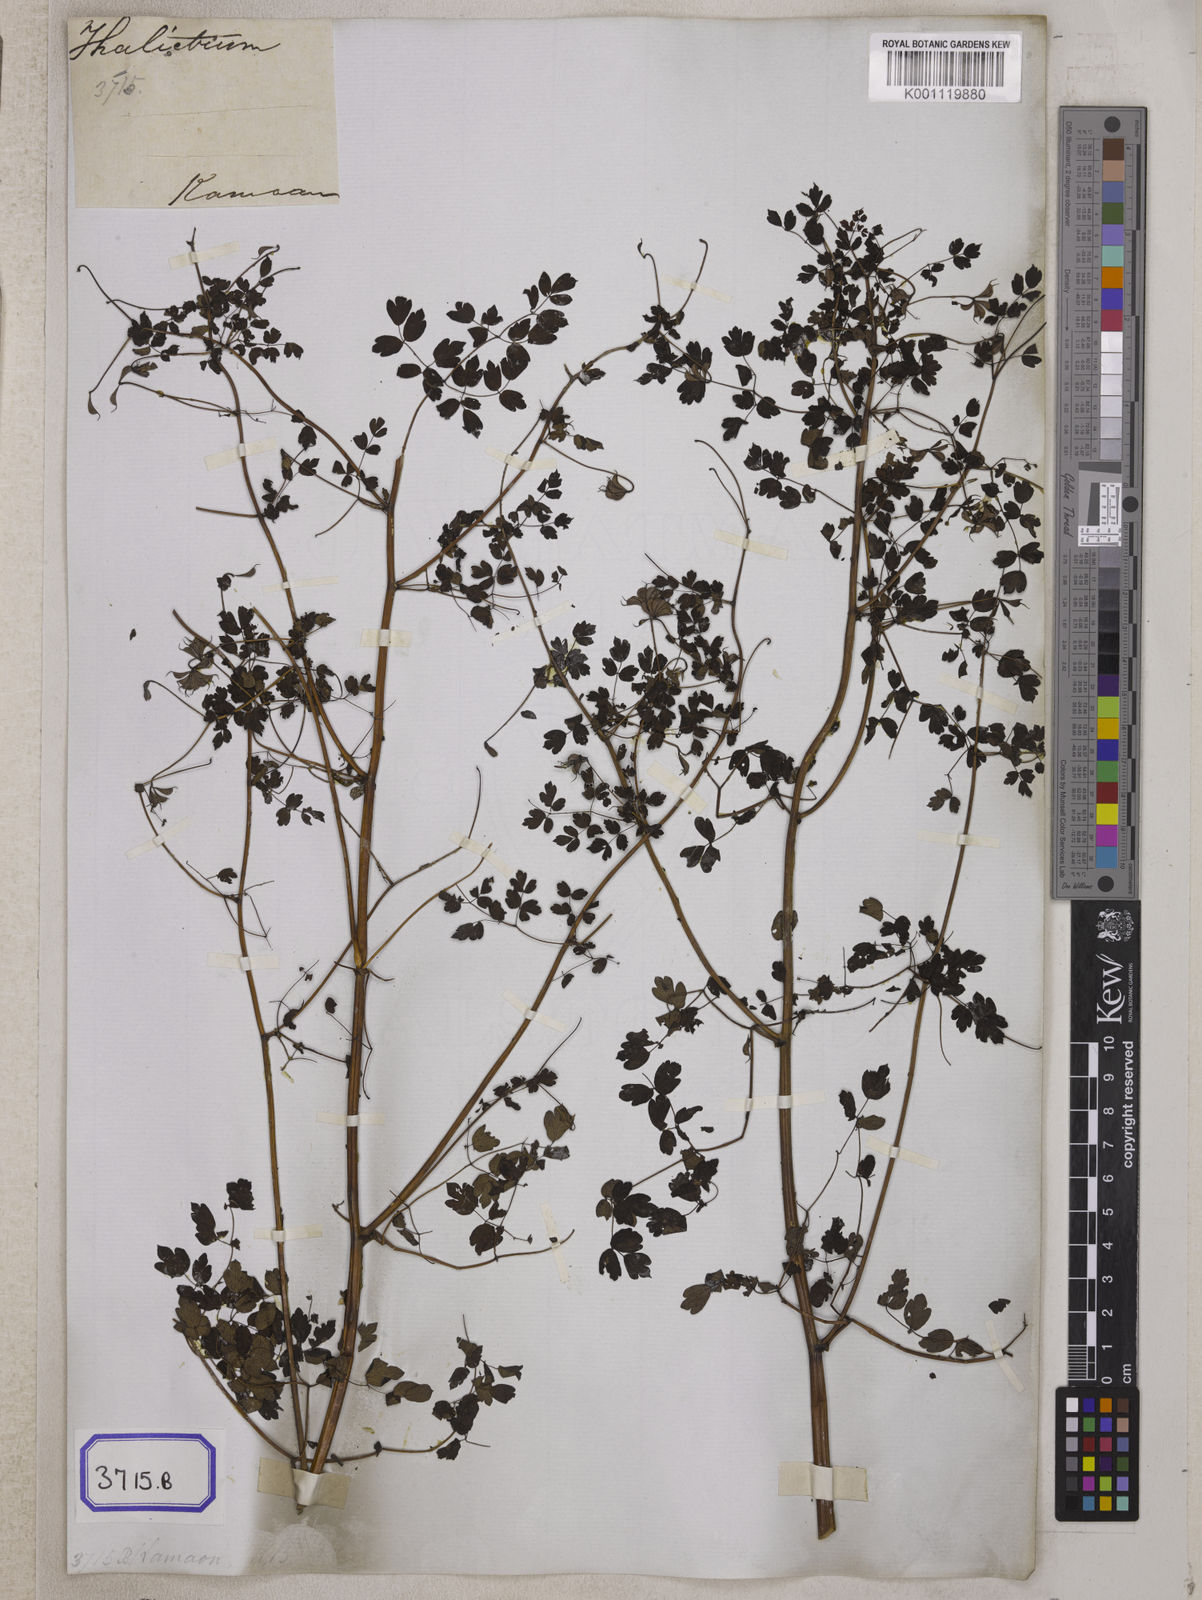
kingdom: Plantae
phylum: Tracheophyta
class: Magnoliopsida
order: Ranunculales
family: Ranunculaceae
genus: Thalictrum
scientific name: Thalictrum cultratum
